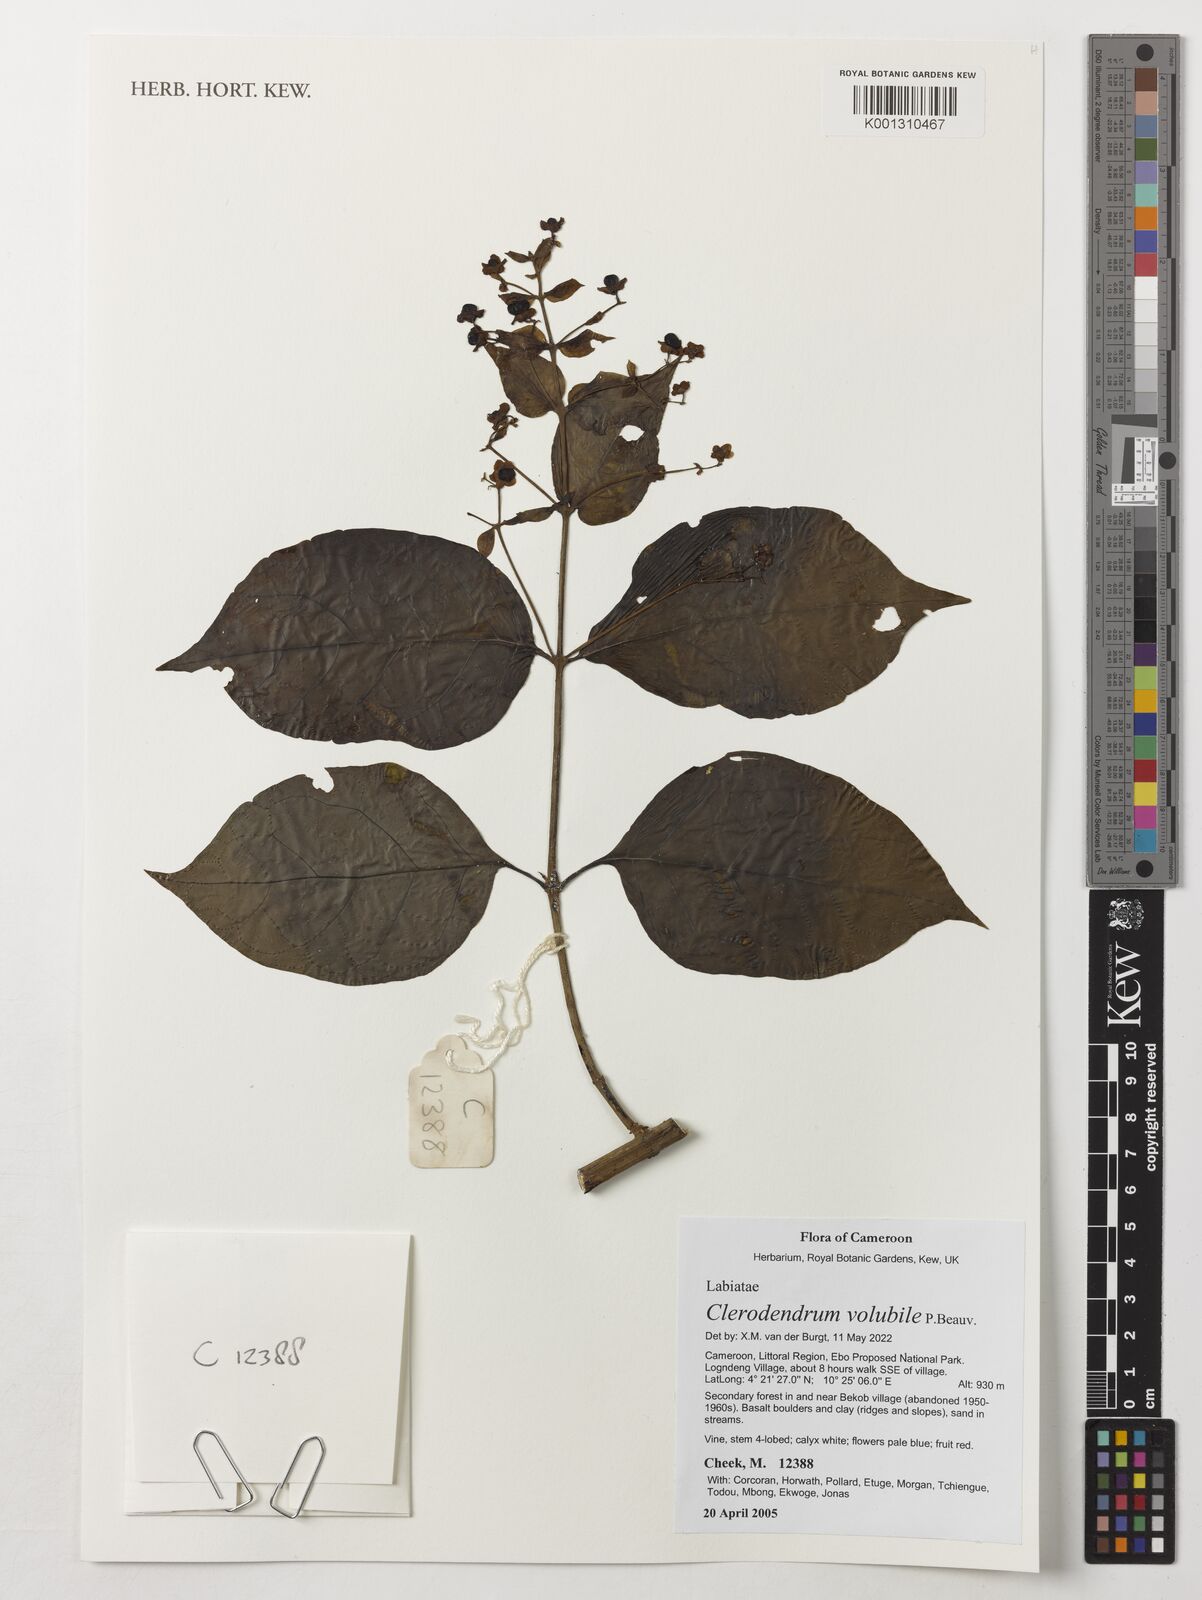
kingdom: Plantae
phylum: Tracheophyta
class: Magnoliopsida
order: Lamiales
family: Lamiaceae
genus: Clerodendrum
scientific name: Clerodendrum volubile
